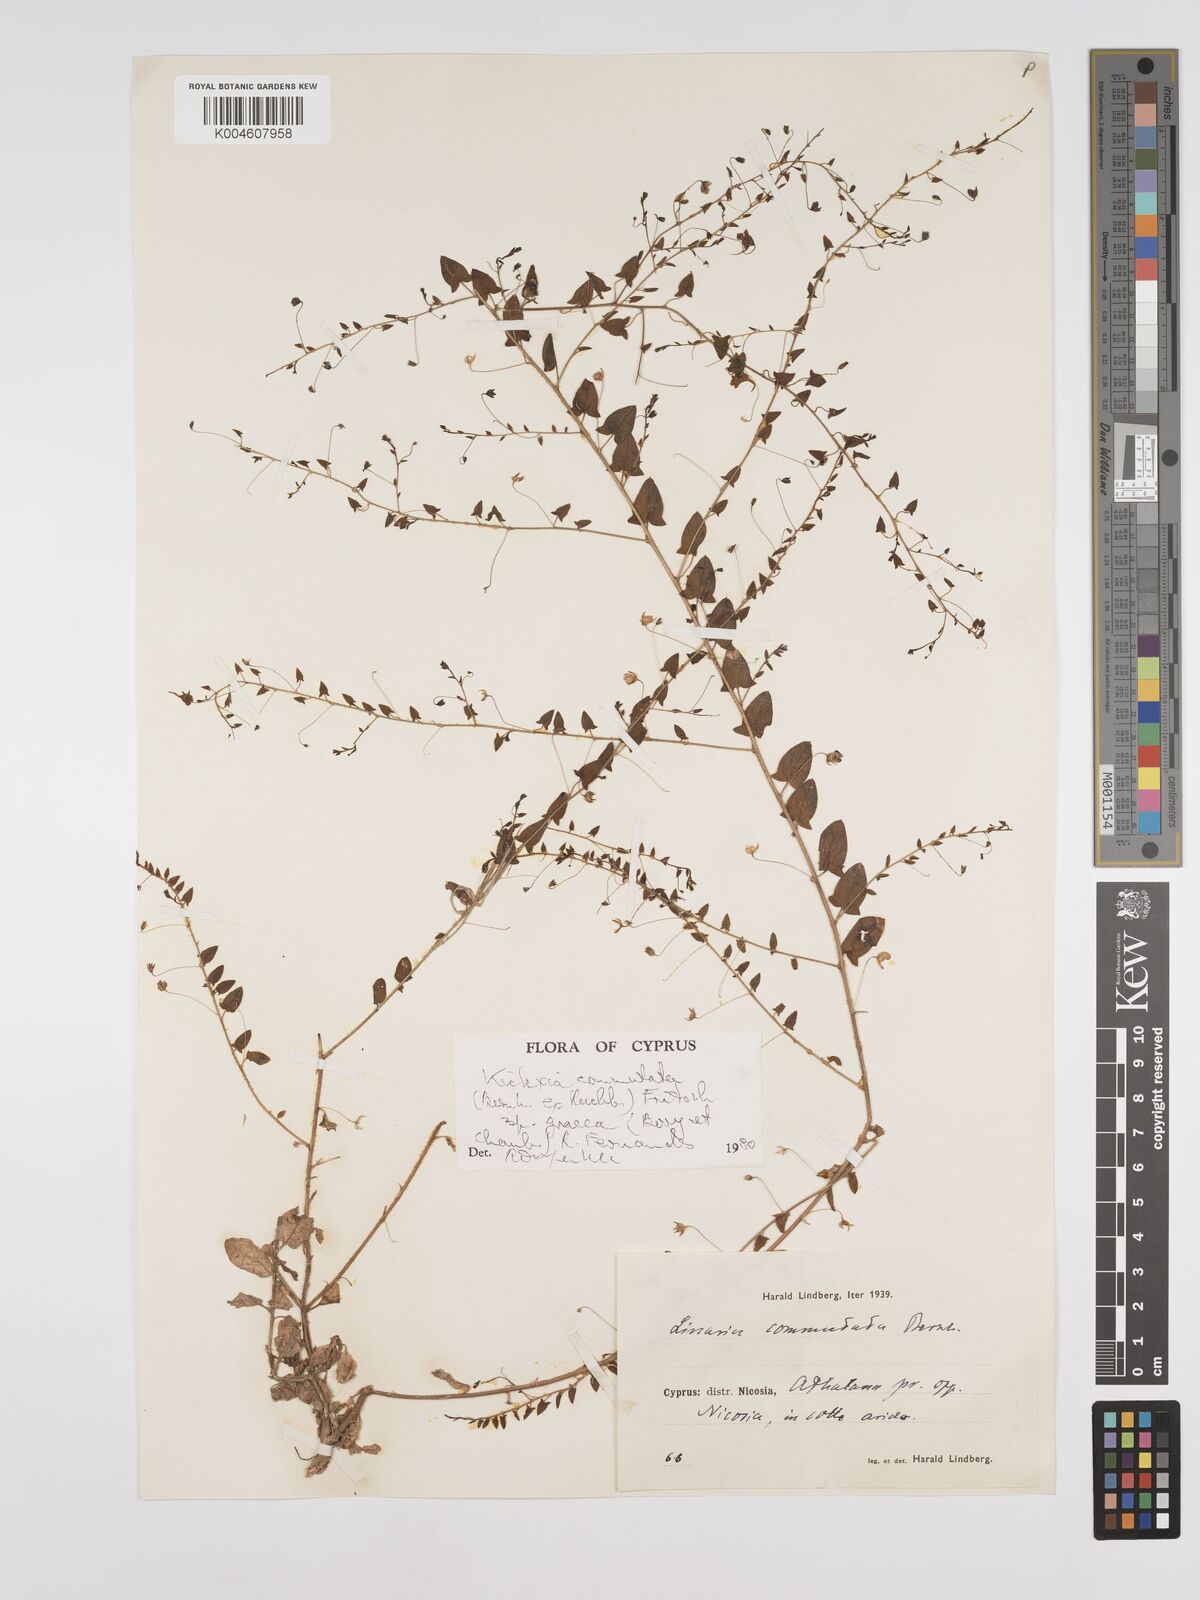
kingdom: Plantae
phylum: Tracheophyta
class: Magnoliopsida
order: Lamiales
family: Plantaginaceae
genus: Kickxia
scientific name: Kickxia commutata
